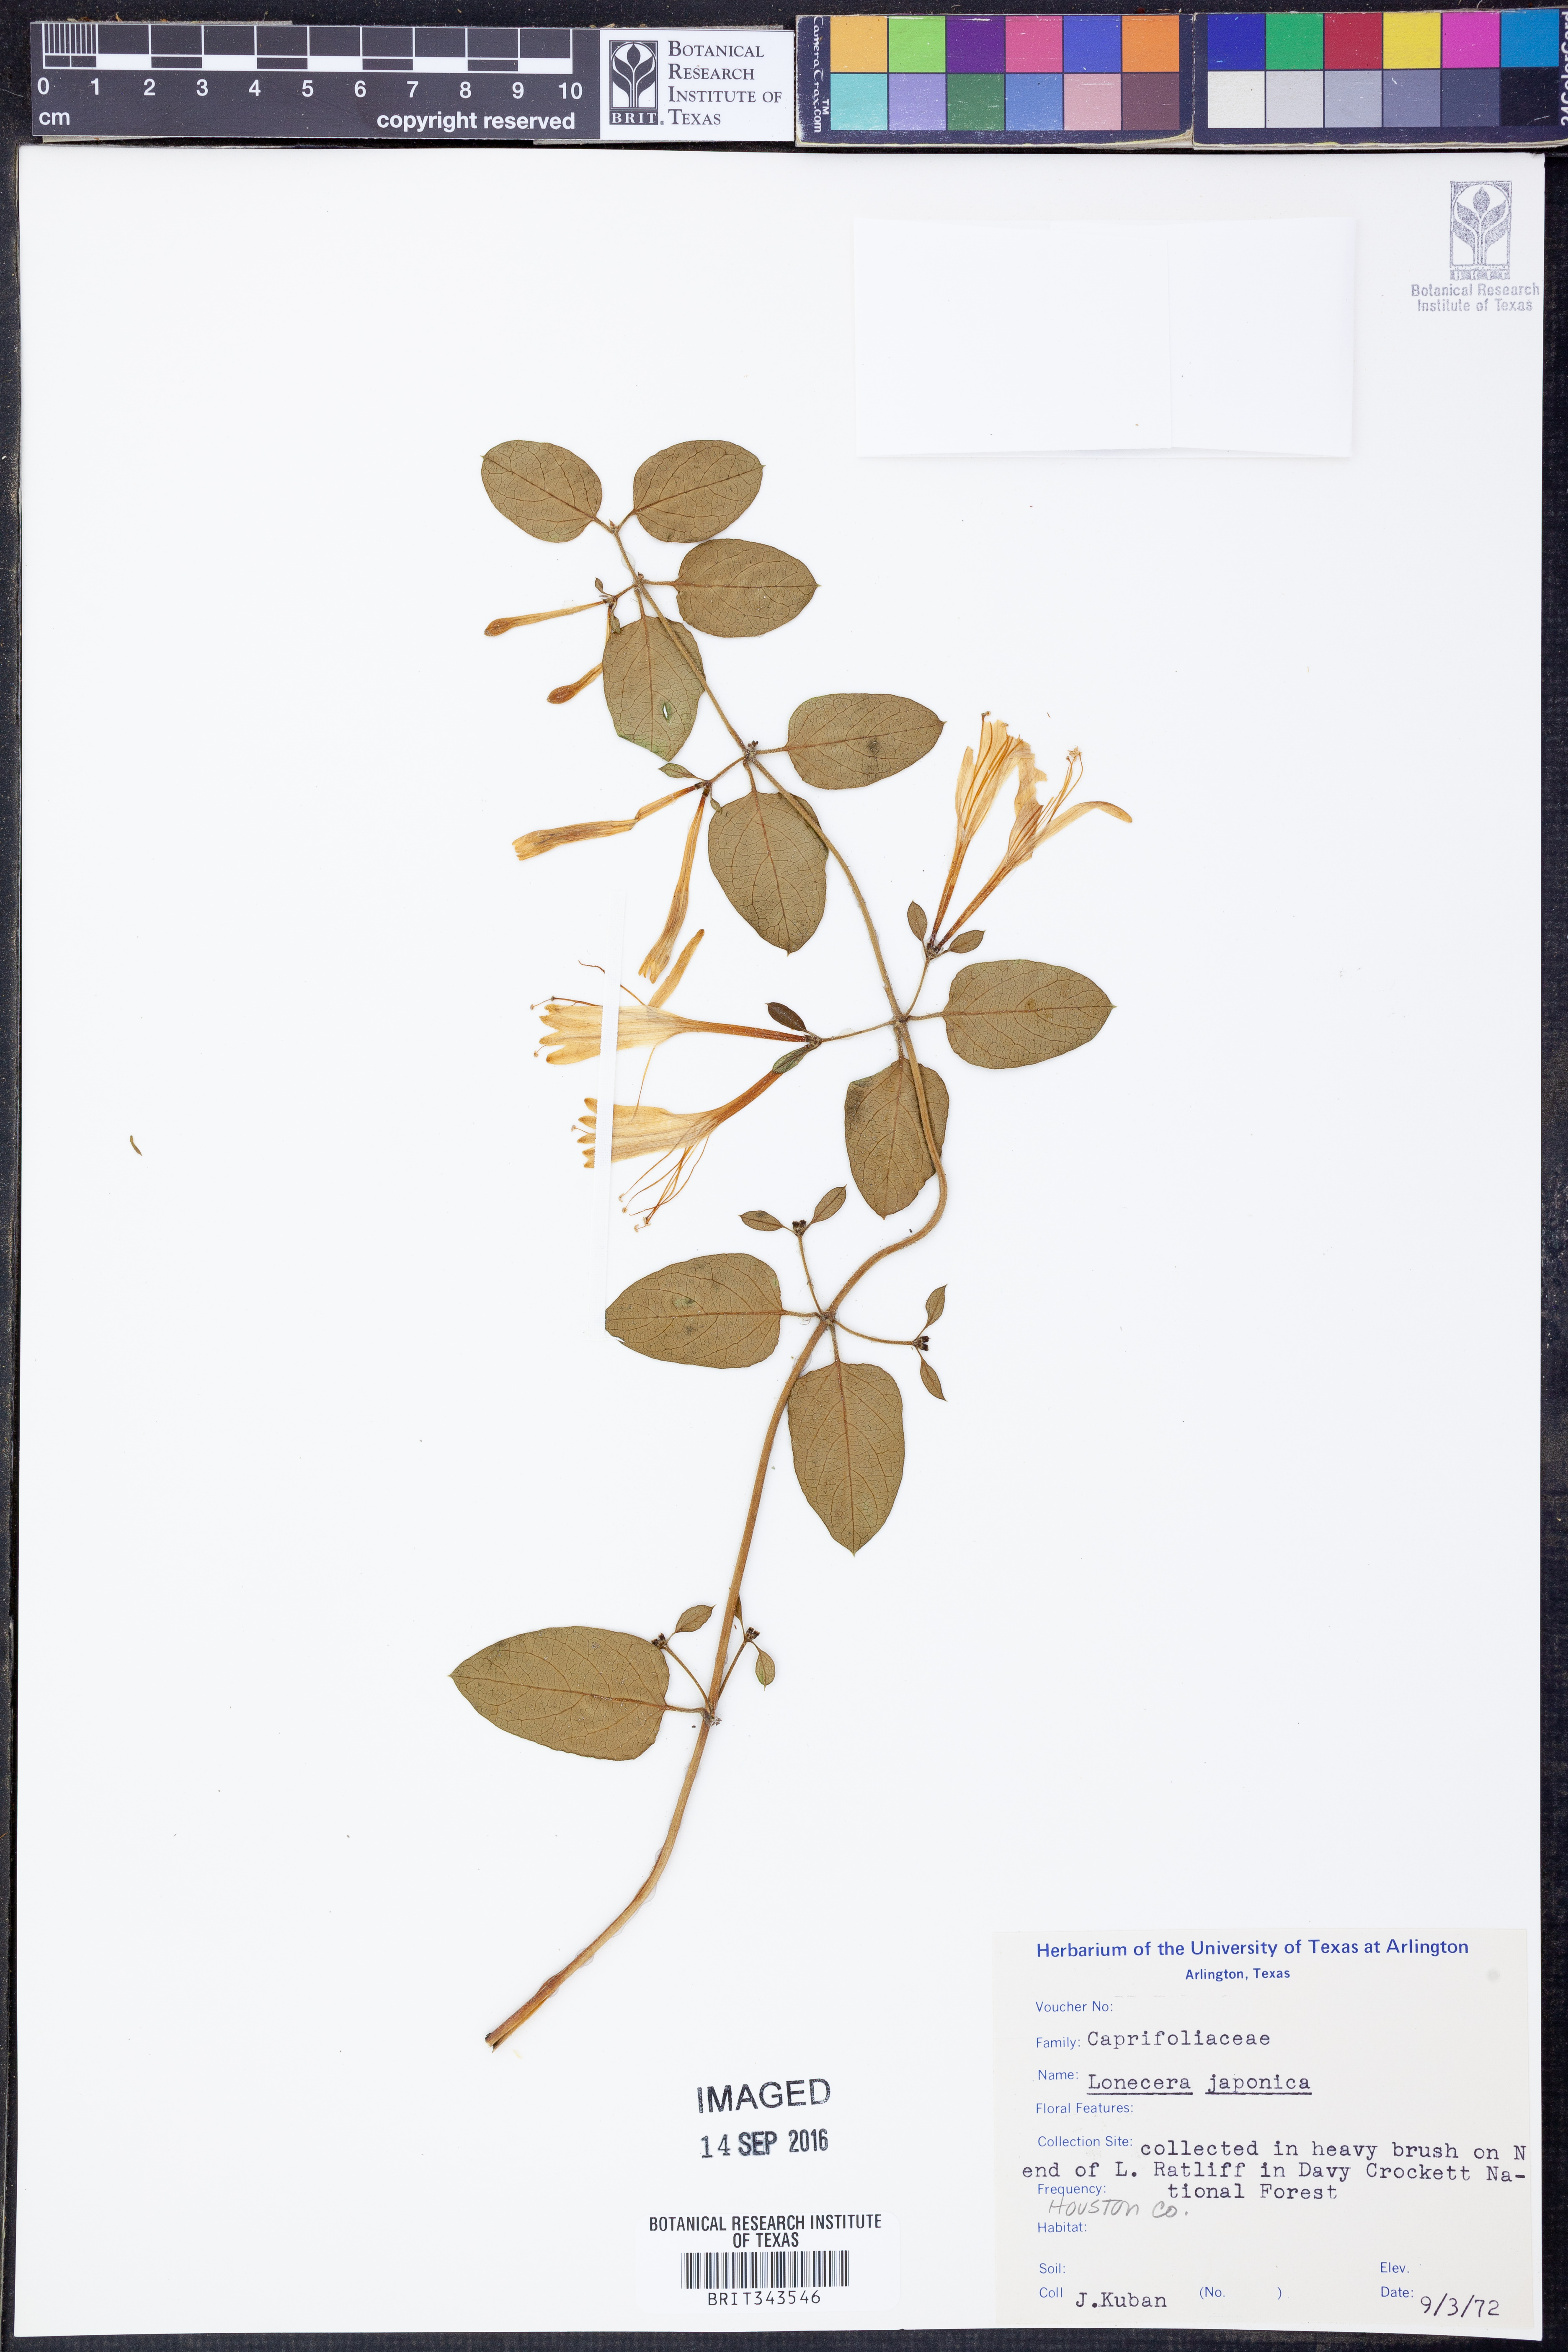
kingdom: Plantae
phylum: Tracheophyta
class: Magnoliopsida
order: Dipsacales
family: Caprifoliaceae
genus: Lonicera
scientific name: Lonicera japonica
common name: Japanese honeysuckle
